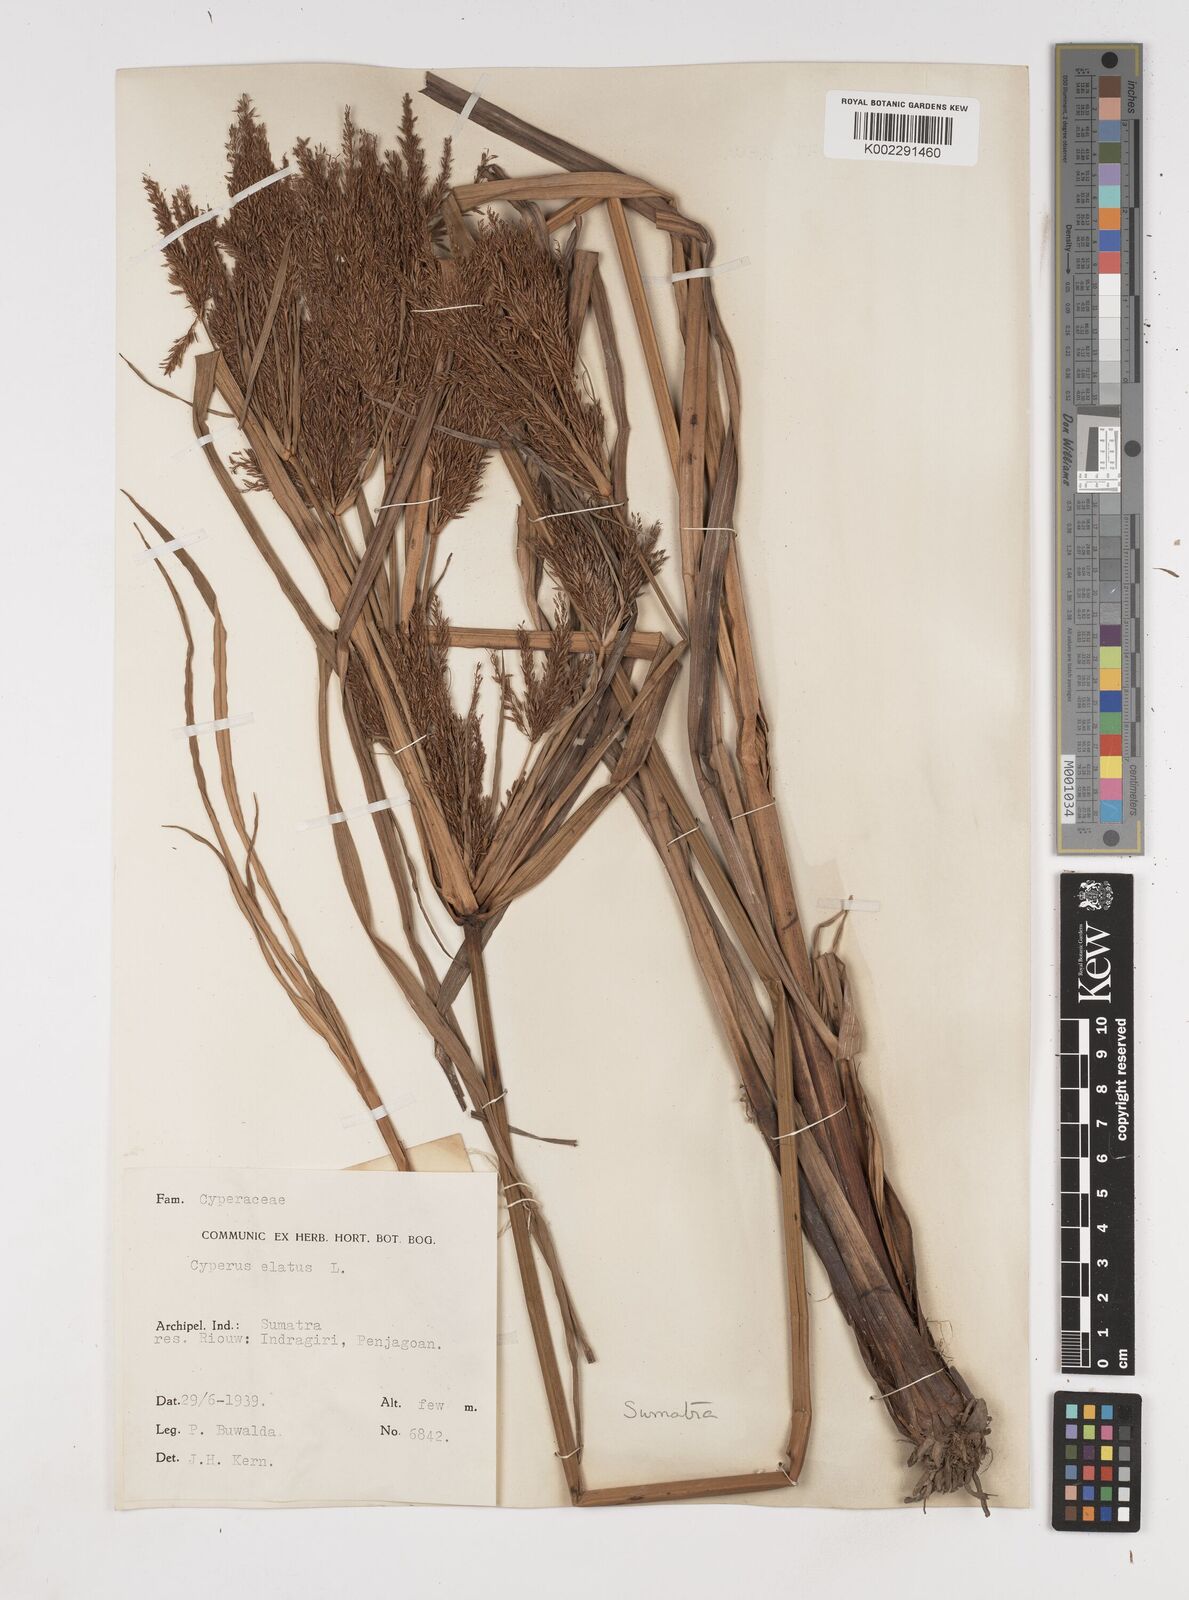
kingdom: Plantae
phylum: Tracheophyta
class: Liliopsida
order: Poales
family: Cyperaceae
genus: Cyperus
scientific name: Cyperus elatus
